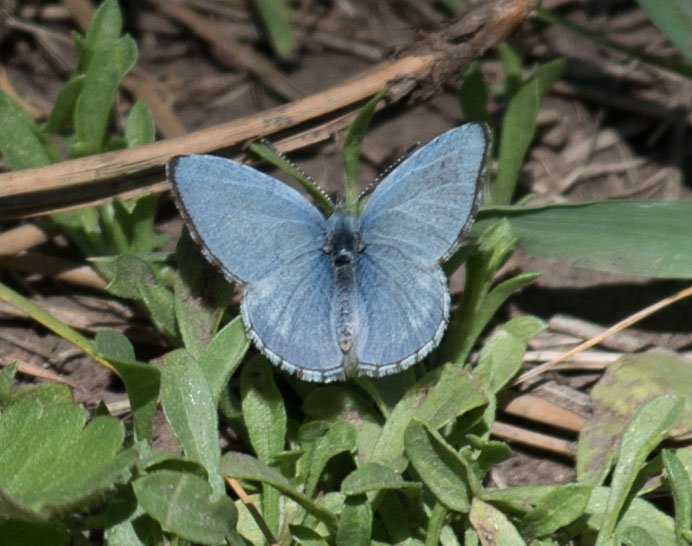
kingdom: Animalia
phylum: Arthropoda
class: Insecta
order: Lepidoptera
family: Lycaenidae
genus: Celastrina
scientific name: Celastrina ladon
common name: Spring Azure
